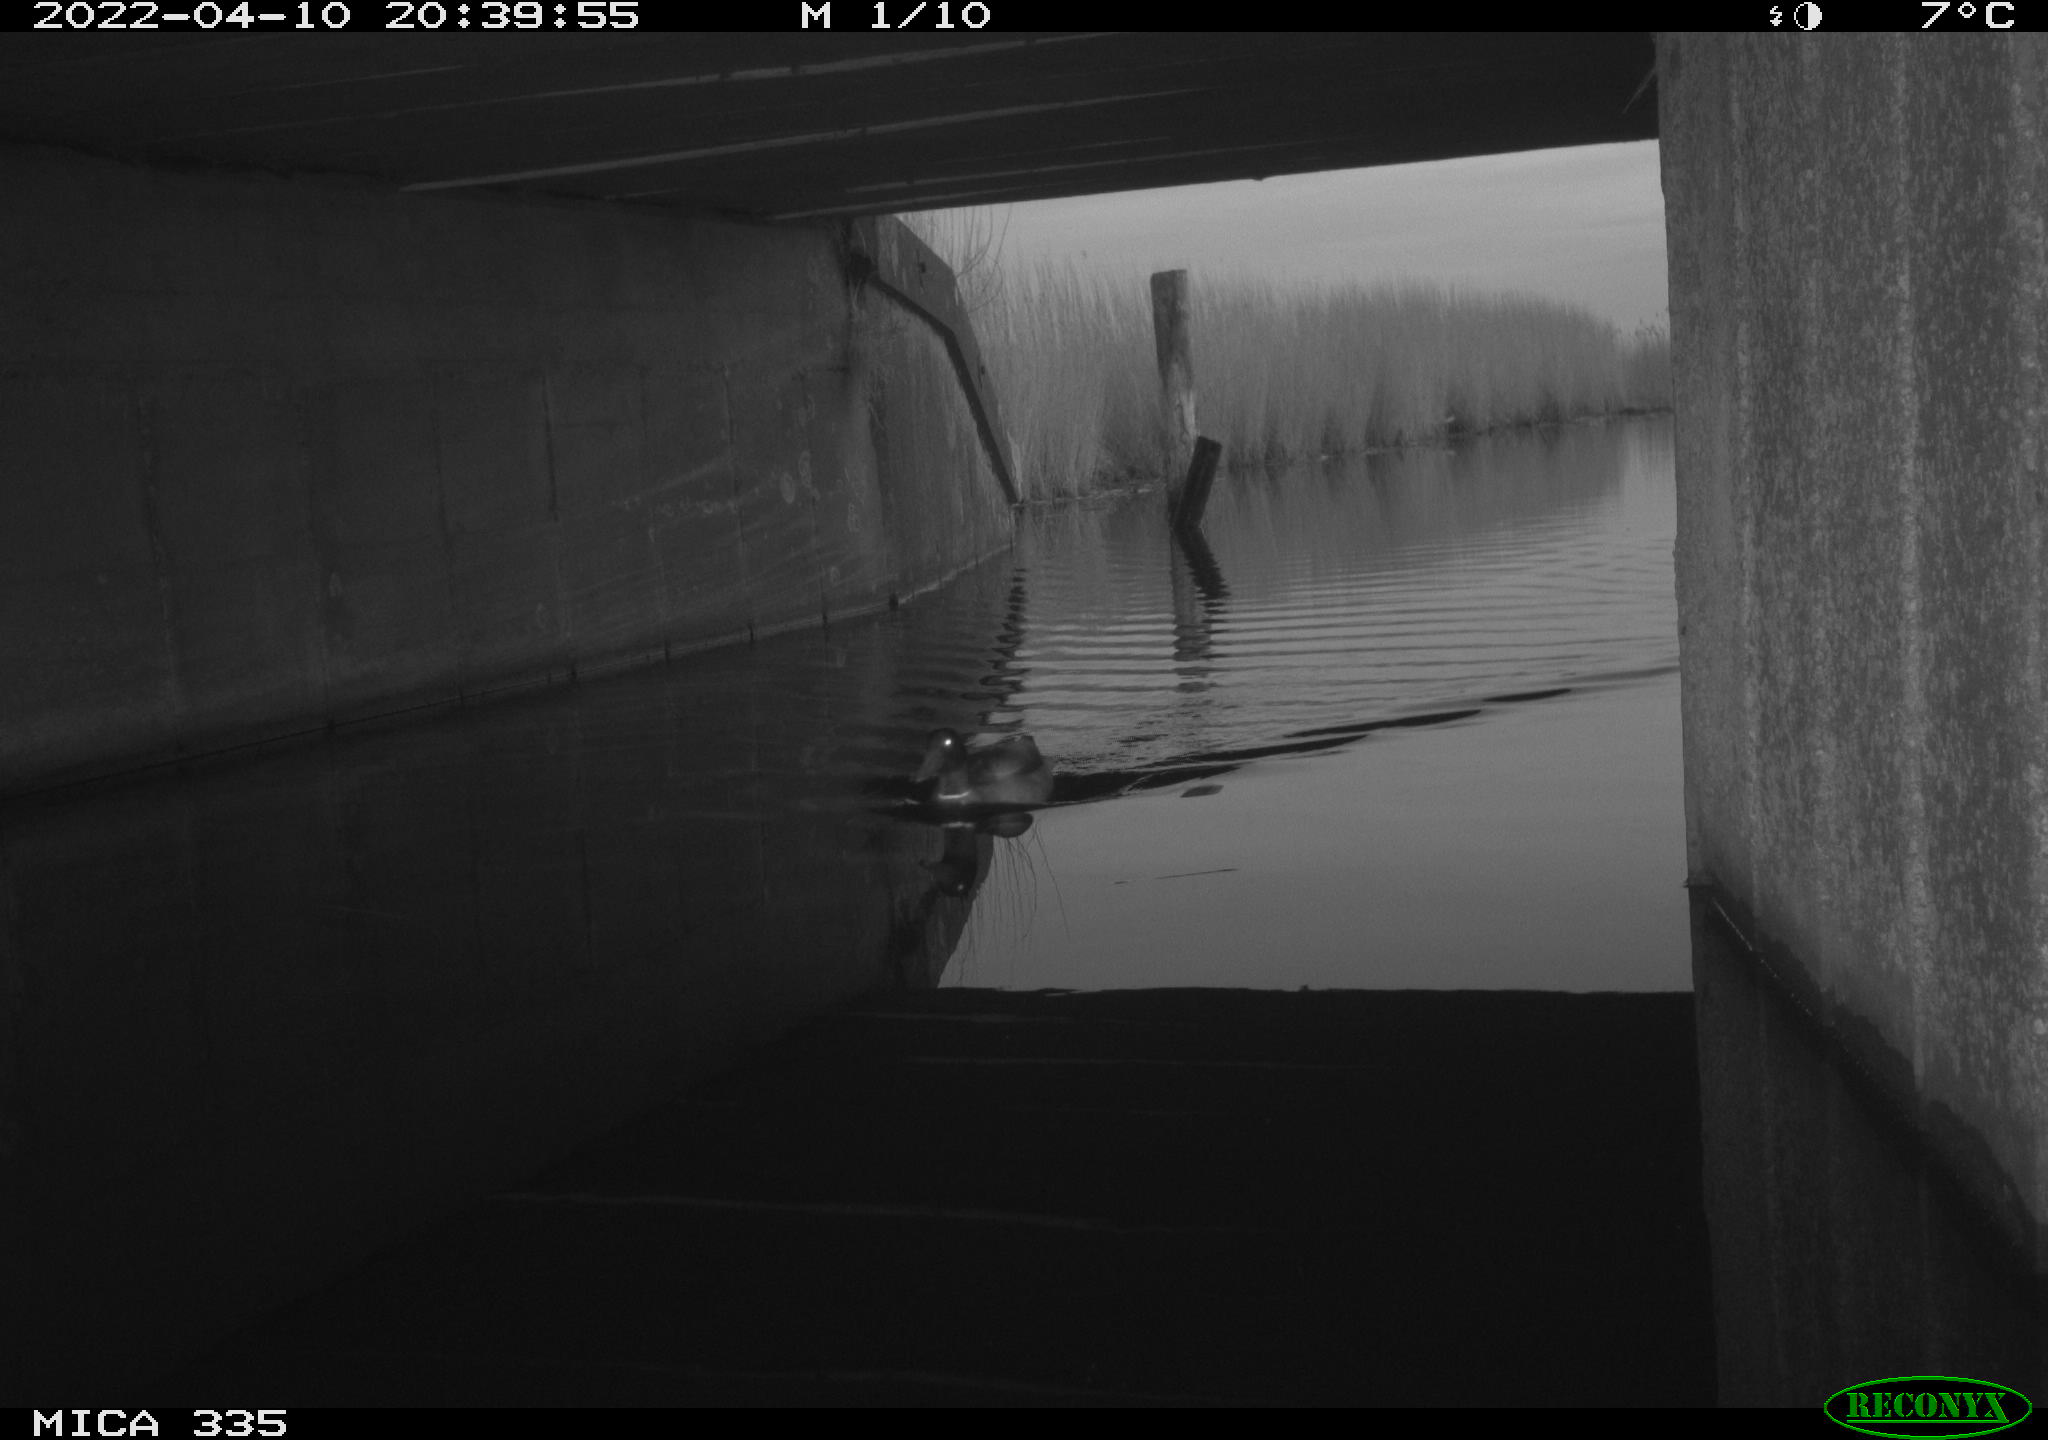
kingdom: Animalia
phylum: Chordata
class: Aves
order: Anseriformes
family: Anatidae
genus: Anas
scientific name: Anas platyrhynchos
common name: Mallard
